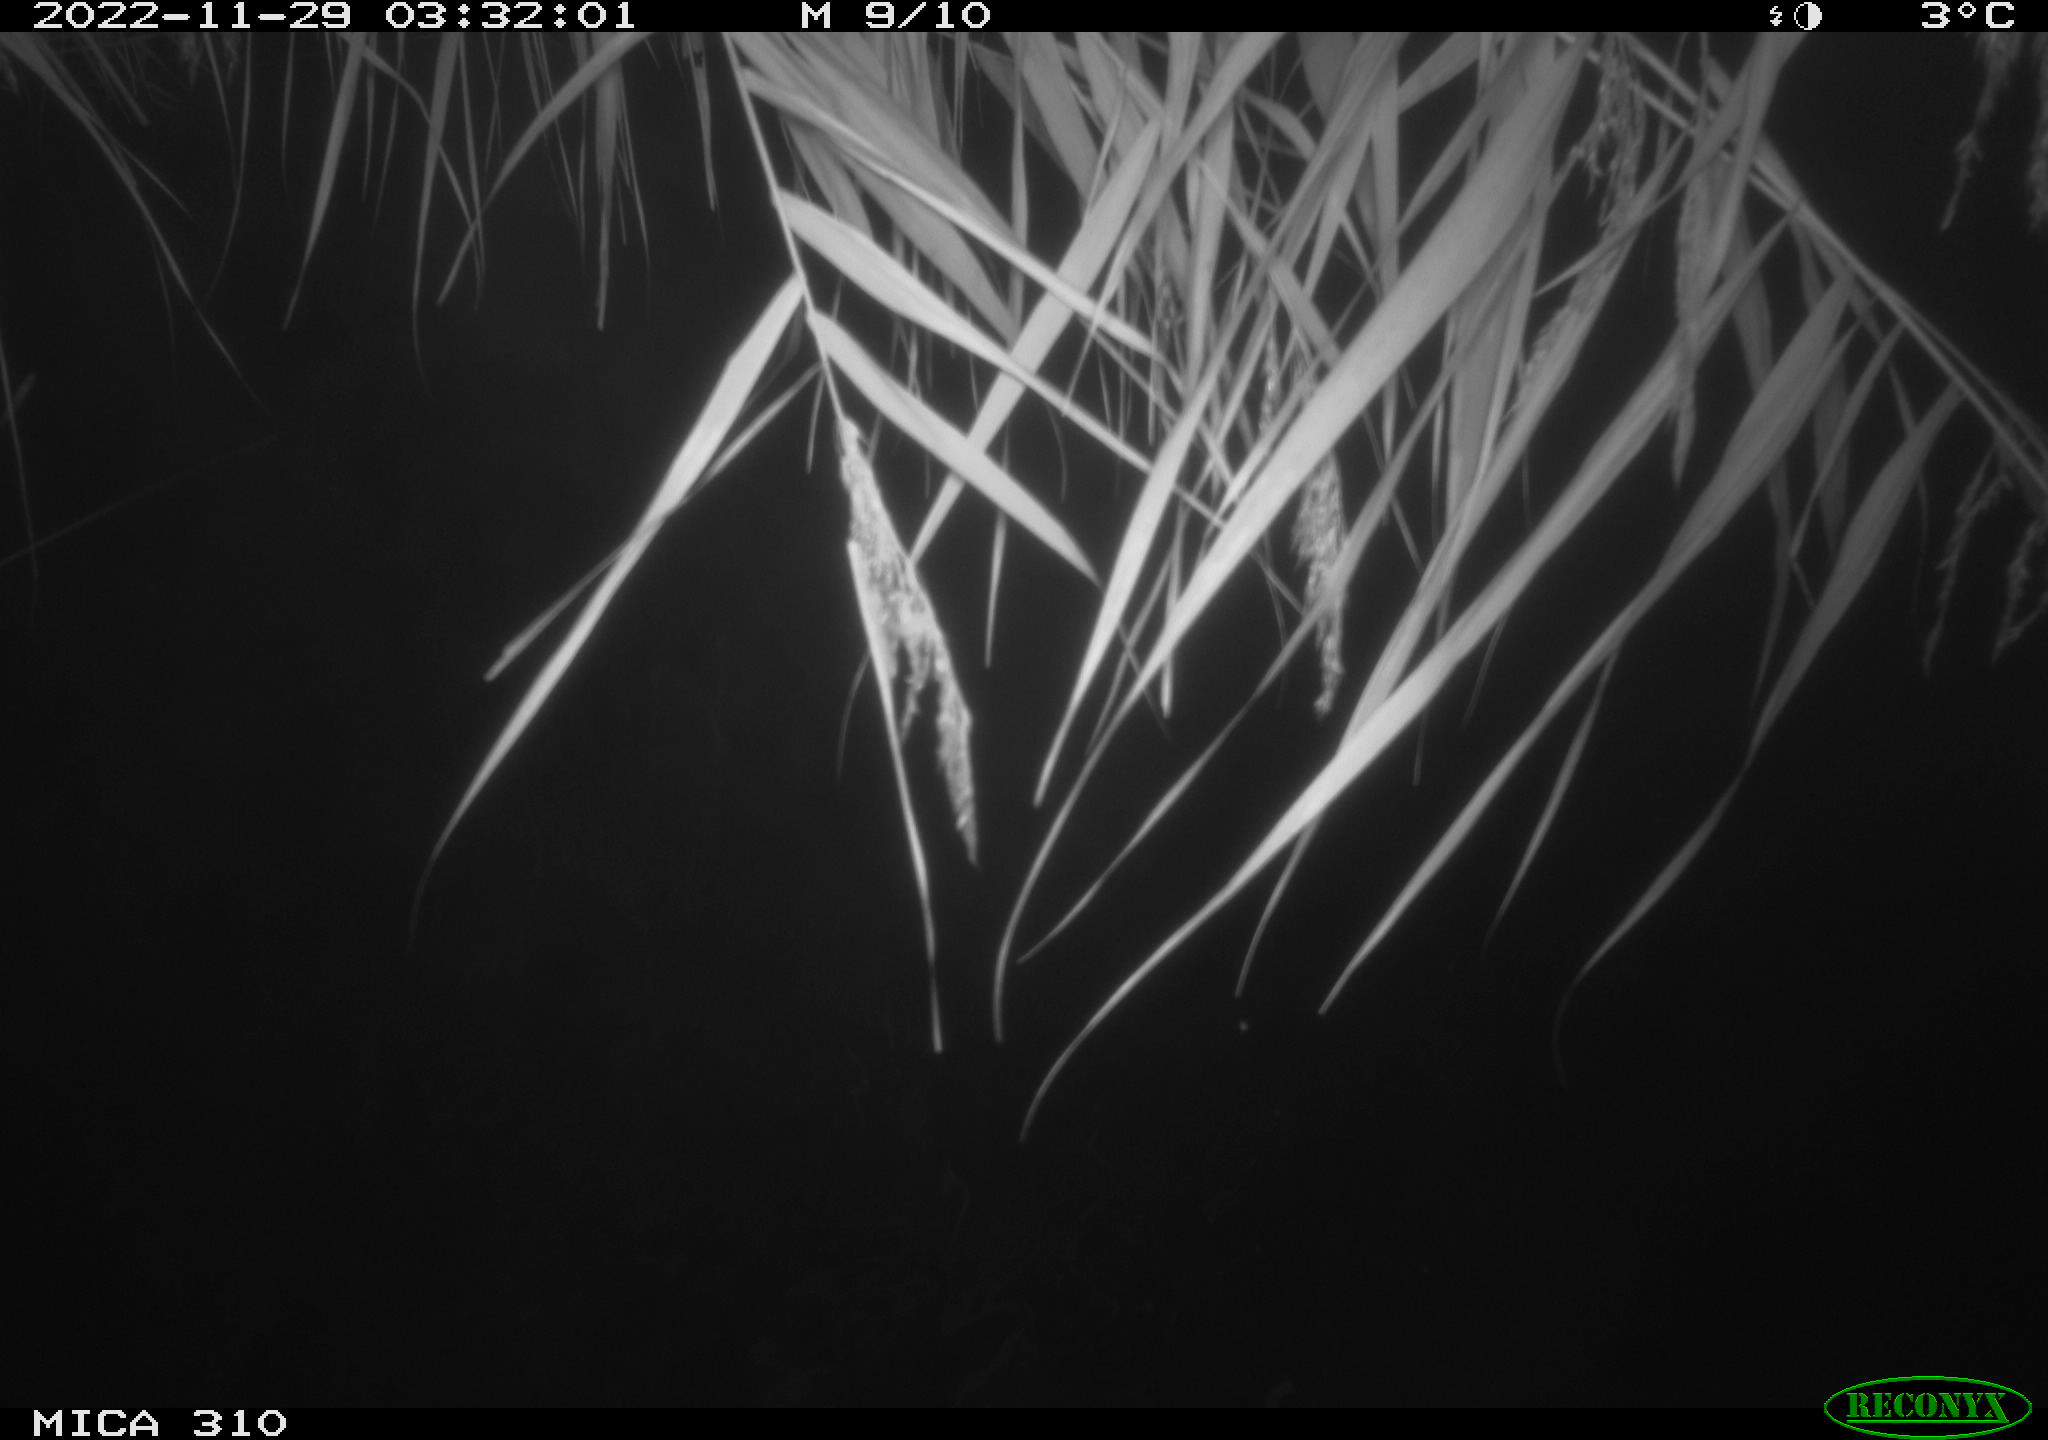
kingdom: Animalia
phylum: Chordata
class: Mammalia
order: Rodentia
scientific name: Rodentia
